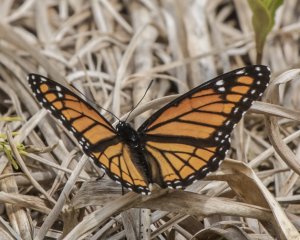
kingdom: Animalia
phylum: Arthropoda
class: Insecta
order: Lepidoptera
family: Nymphalidae
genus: Limenitis
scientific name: Limenitis archippus
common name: Viceroy
